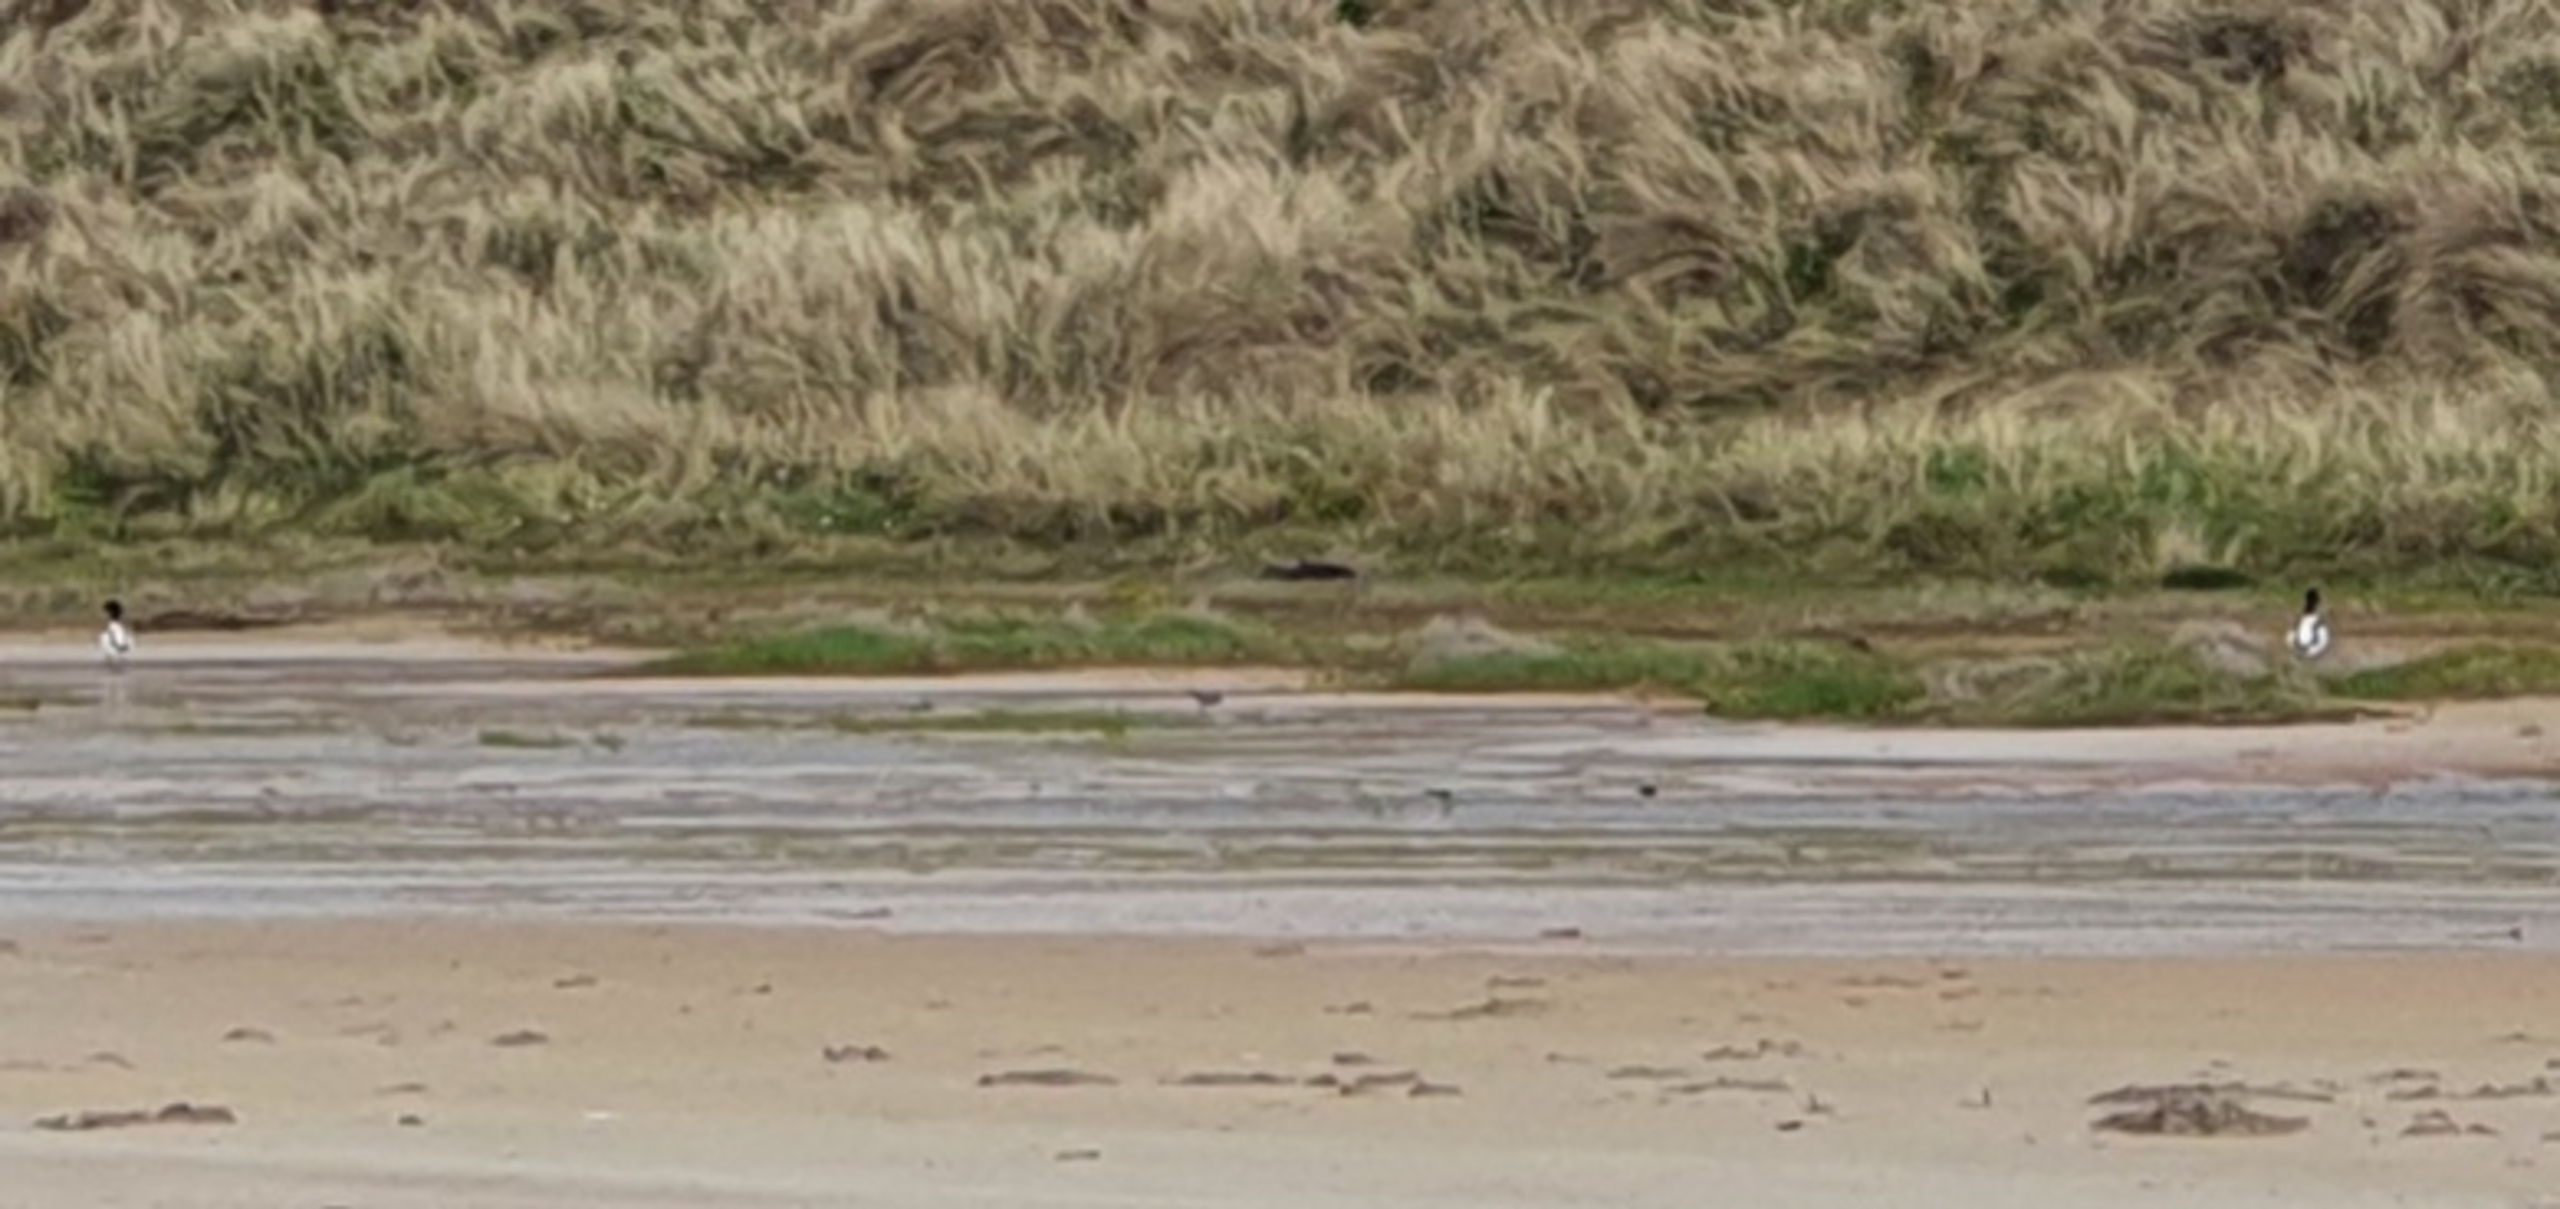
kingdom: Animalia
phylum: Chordata
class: Aves
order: Anseriformes
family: Anatidae
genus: Tadorna
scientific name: Tadorna tadorna
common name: Gravand
